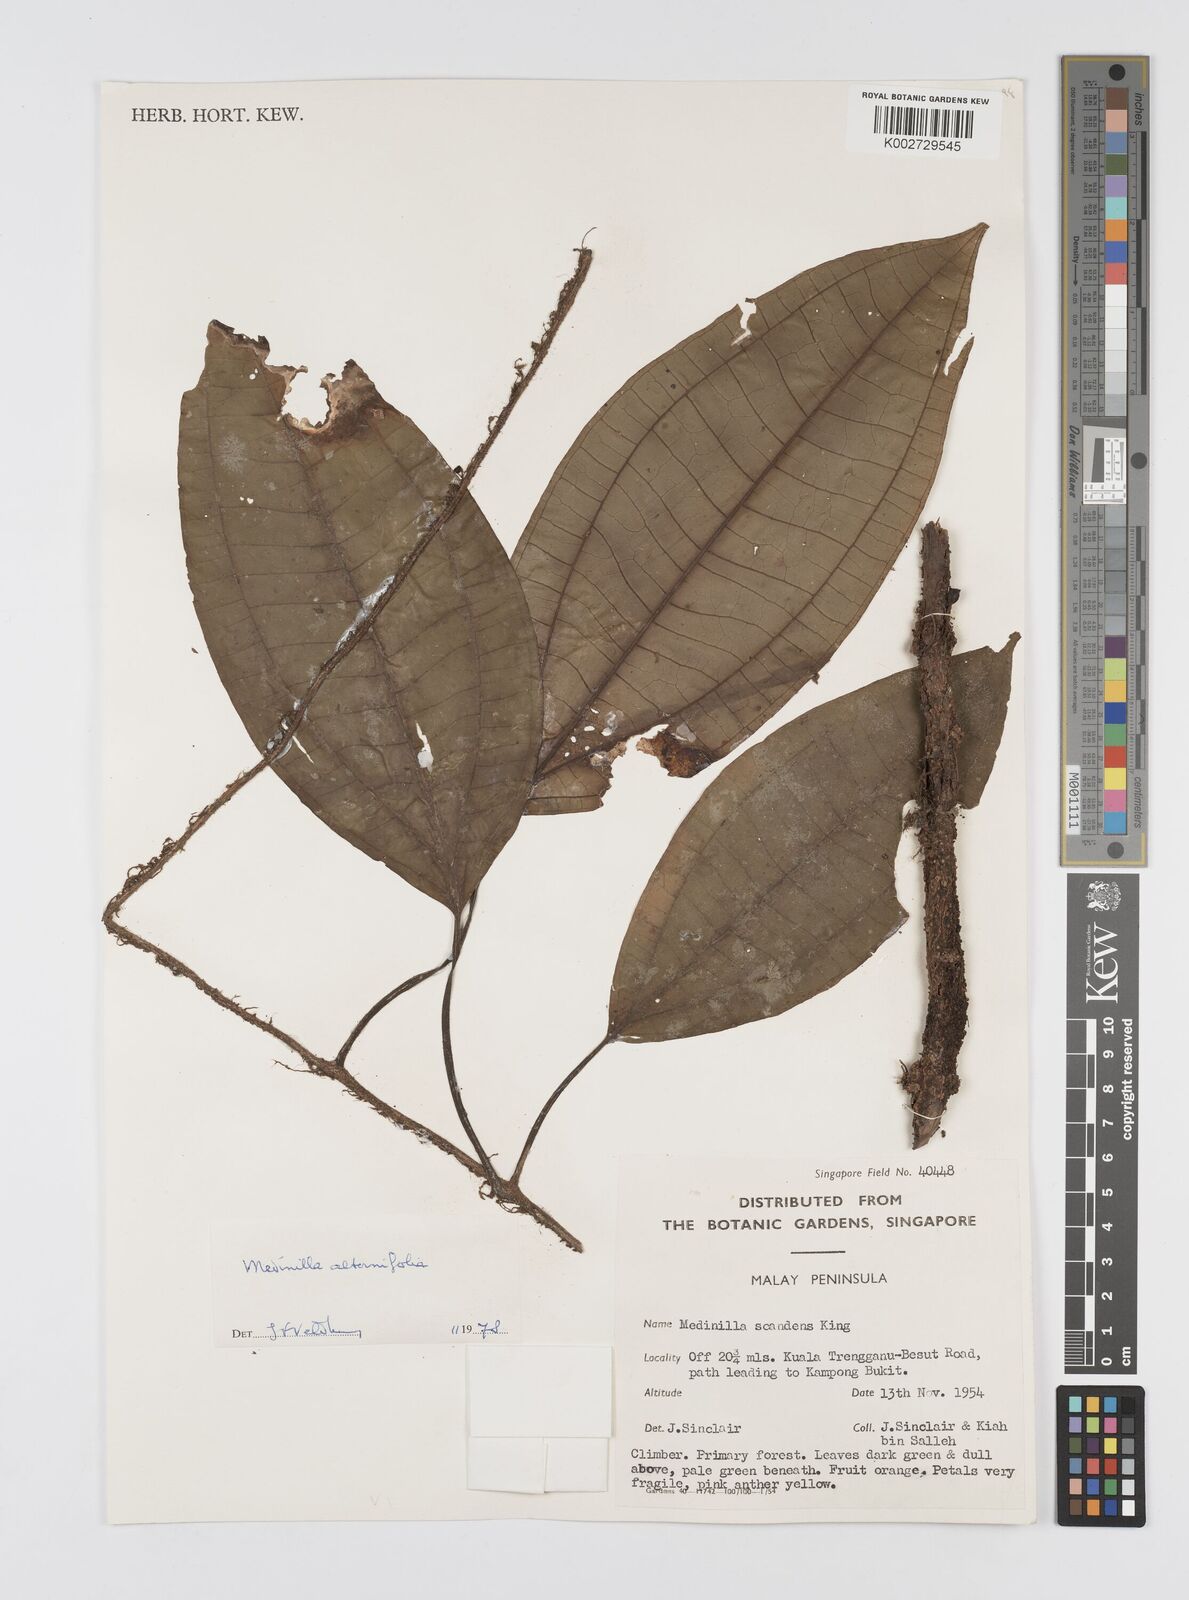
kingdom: Plantae
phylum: Tracheophyta
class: Magnoliopsida
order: Myrtales
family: Melastomataceae
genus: Heteroblemma
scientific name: Heteroblemma alternifolium
